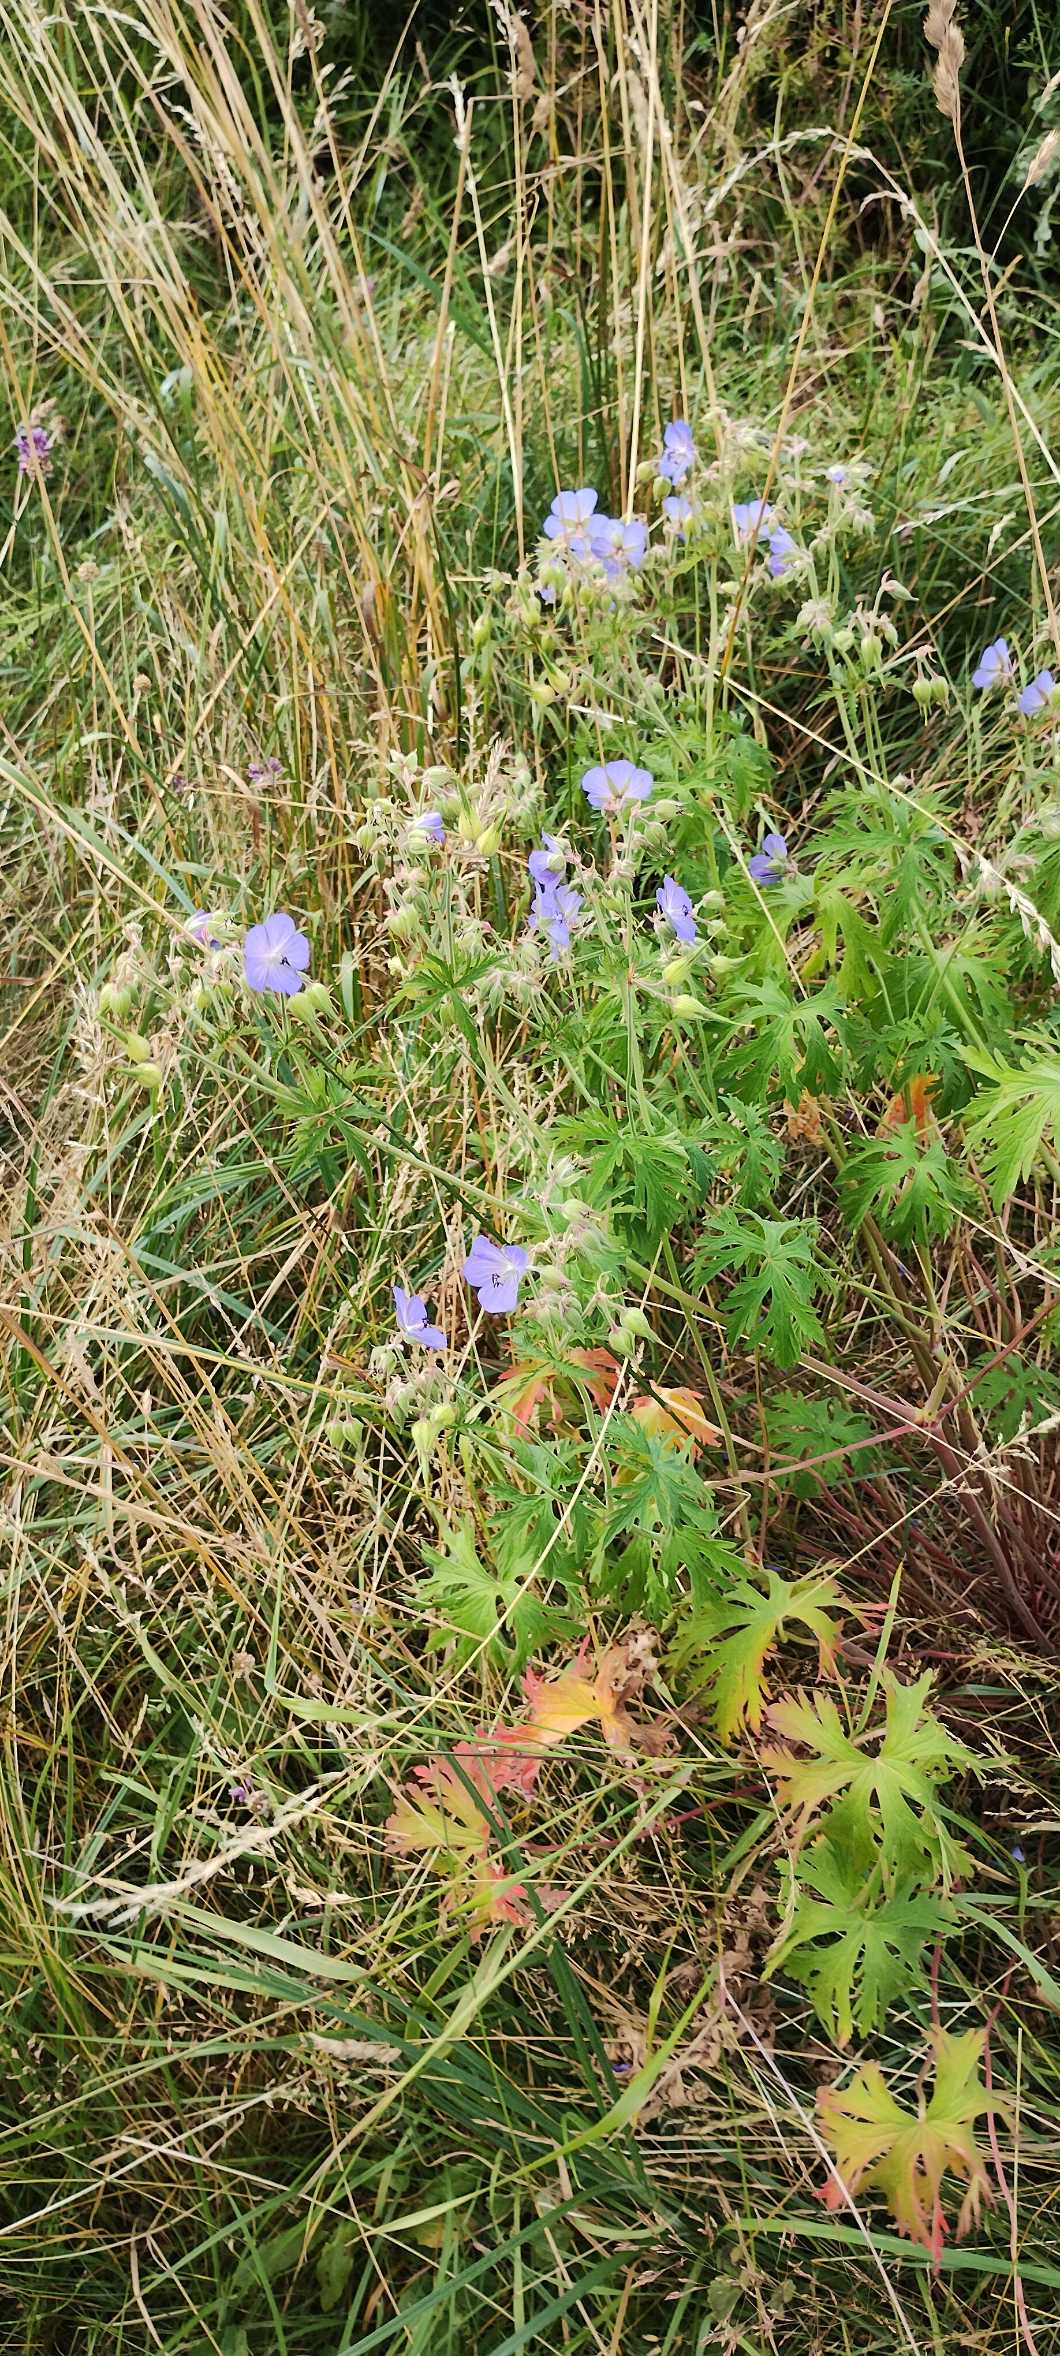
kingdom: Plantae
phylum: Tracheophyta
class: Magnoliopsida
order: Geraniales
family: Geraniaceae
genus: Geranium
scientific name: Geranium pratense
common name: Eng-storkenæb
